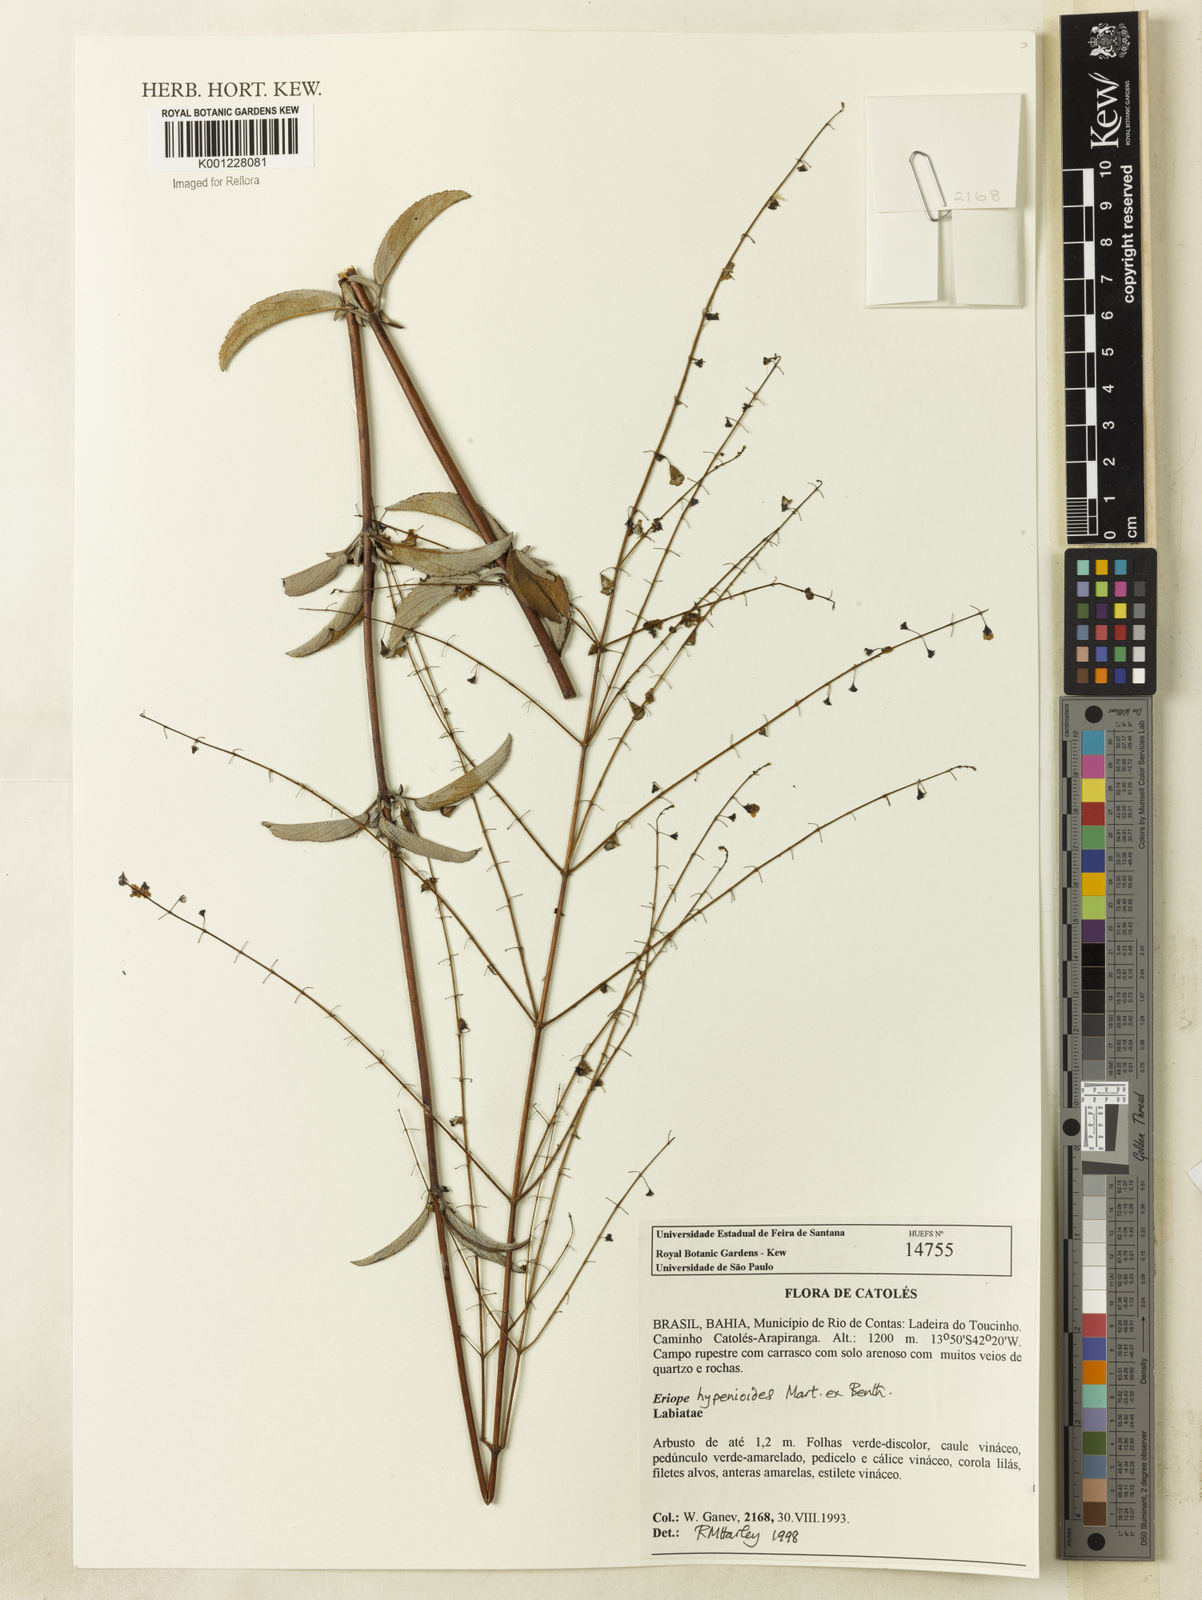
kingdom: Plantae
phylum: Tracheophyta
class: Magnoliopsida
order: Lamiales
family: Lamiaceae
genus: Eriope
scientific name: Eriope hypenioides
